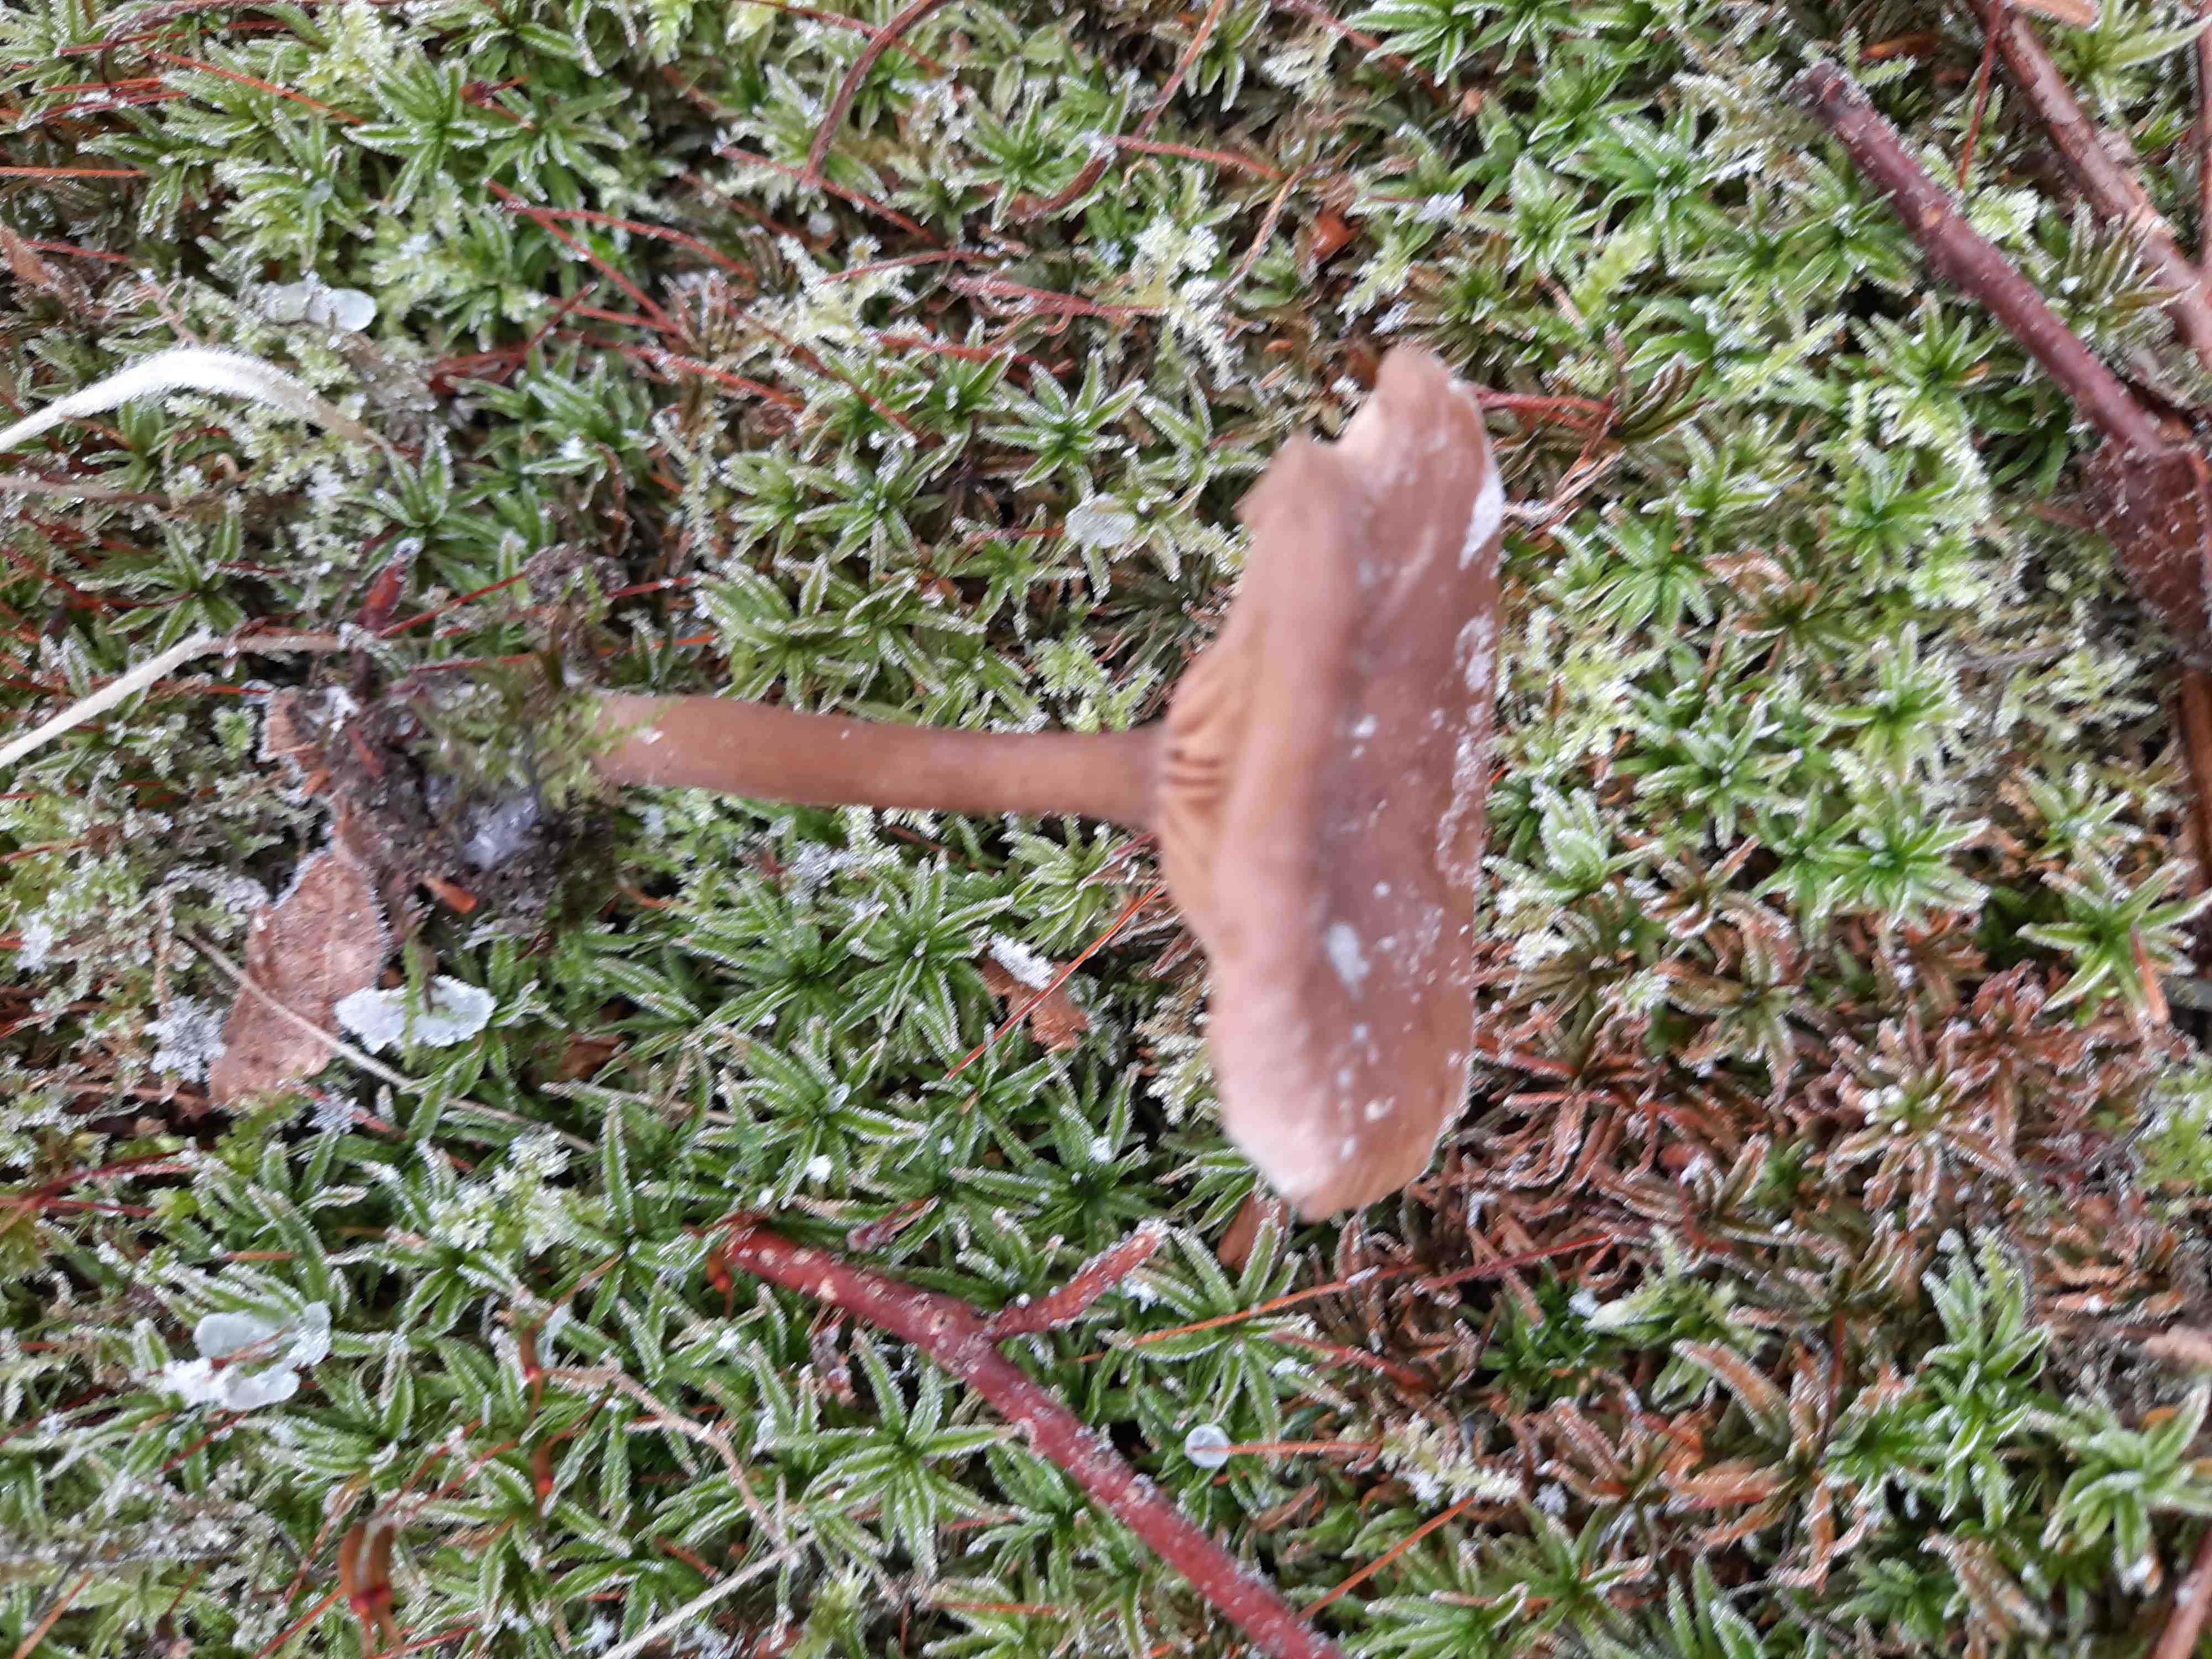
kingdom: Fungi
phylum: Basidiomycota
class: Agaricomycetes
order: Agaricales
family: Pseudoclitocybaceae
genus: Pseudoclitocybe
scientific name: Pseudoclitocybe cyathiformis
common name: almindelig bægertragthat
